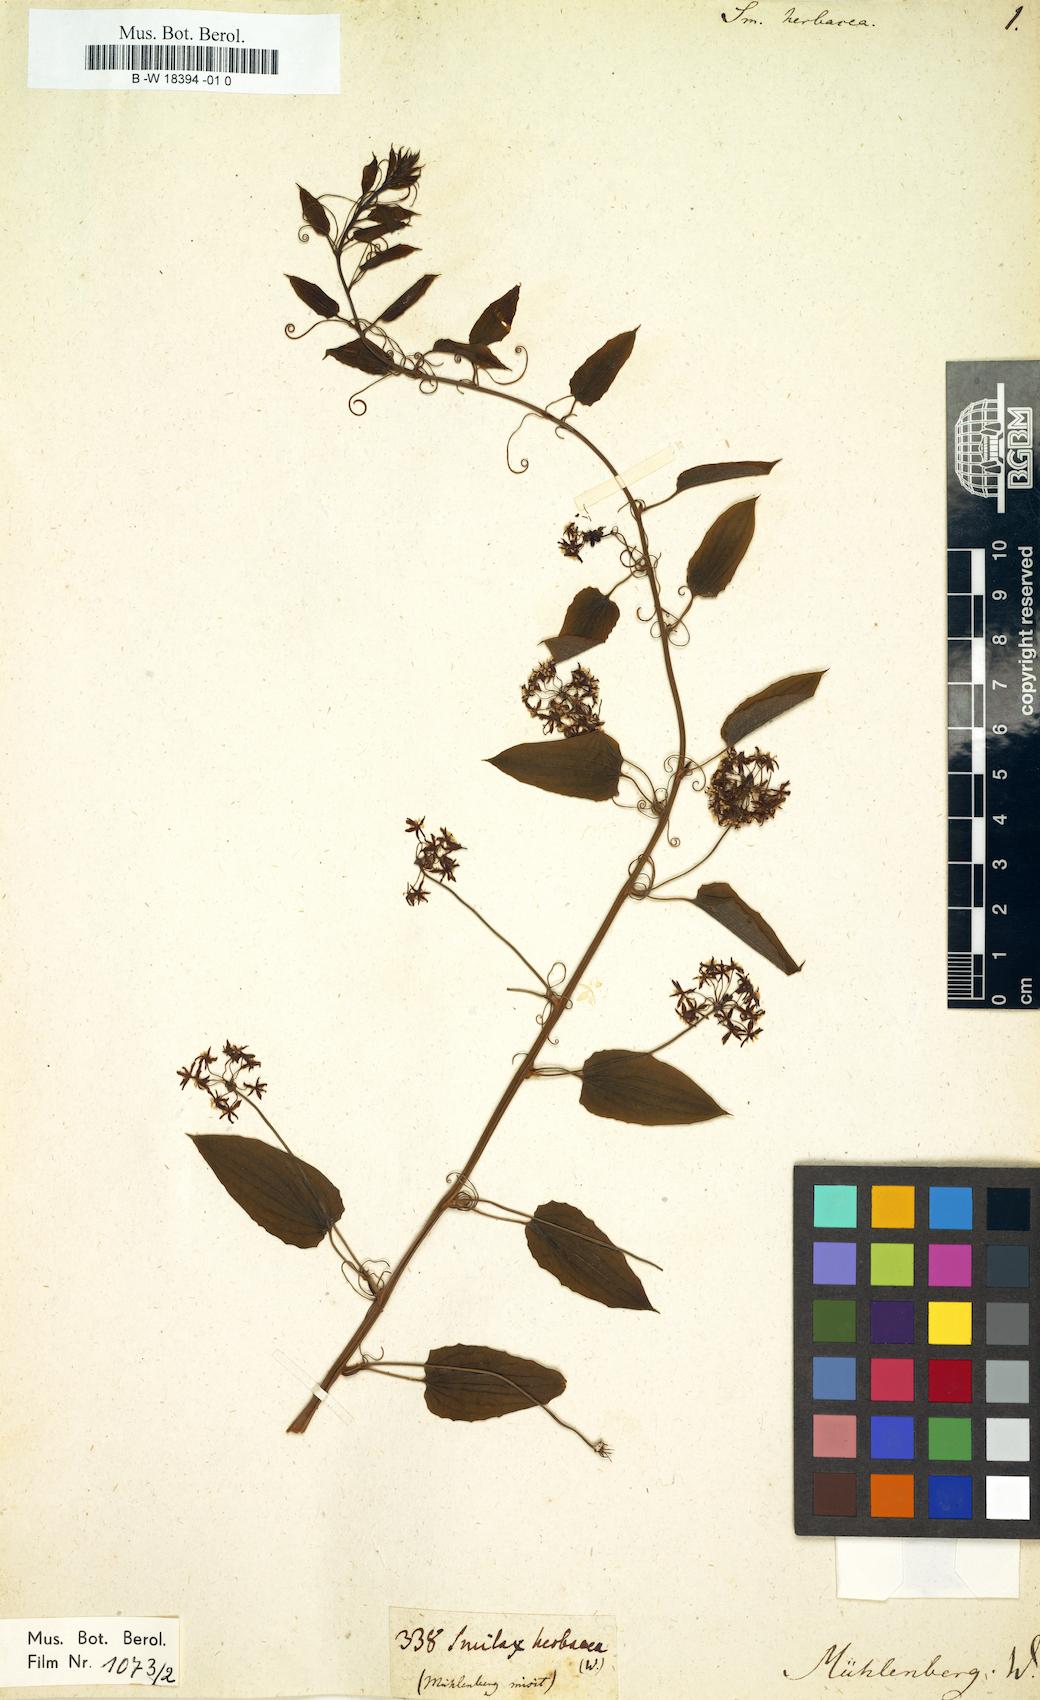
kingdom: Plantae
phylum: Tracheophyta
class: Liliopsida
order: Liliales
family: Smilacaceae
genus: Smilax
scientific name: Smilax herbacea
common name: Jacob's-ladder
